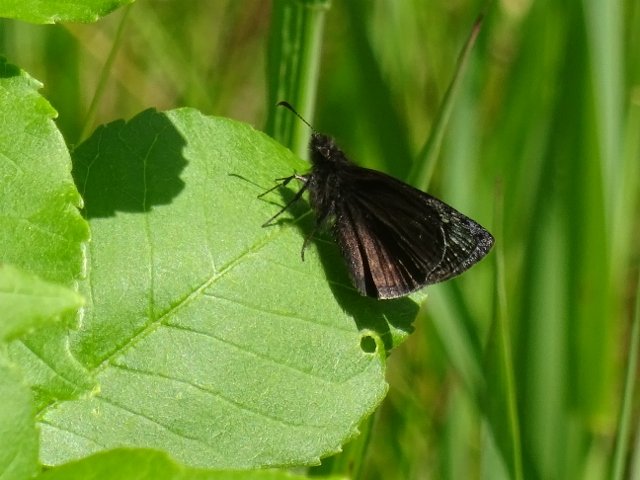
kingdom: Animalia
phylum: Arthropoda
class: Insecta
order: Lepidoptera
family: Hesperiidae
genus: Erynnis
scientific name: Erynnis
